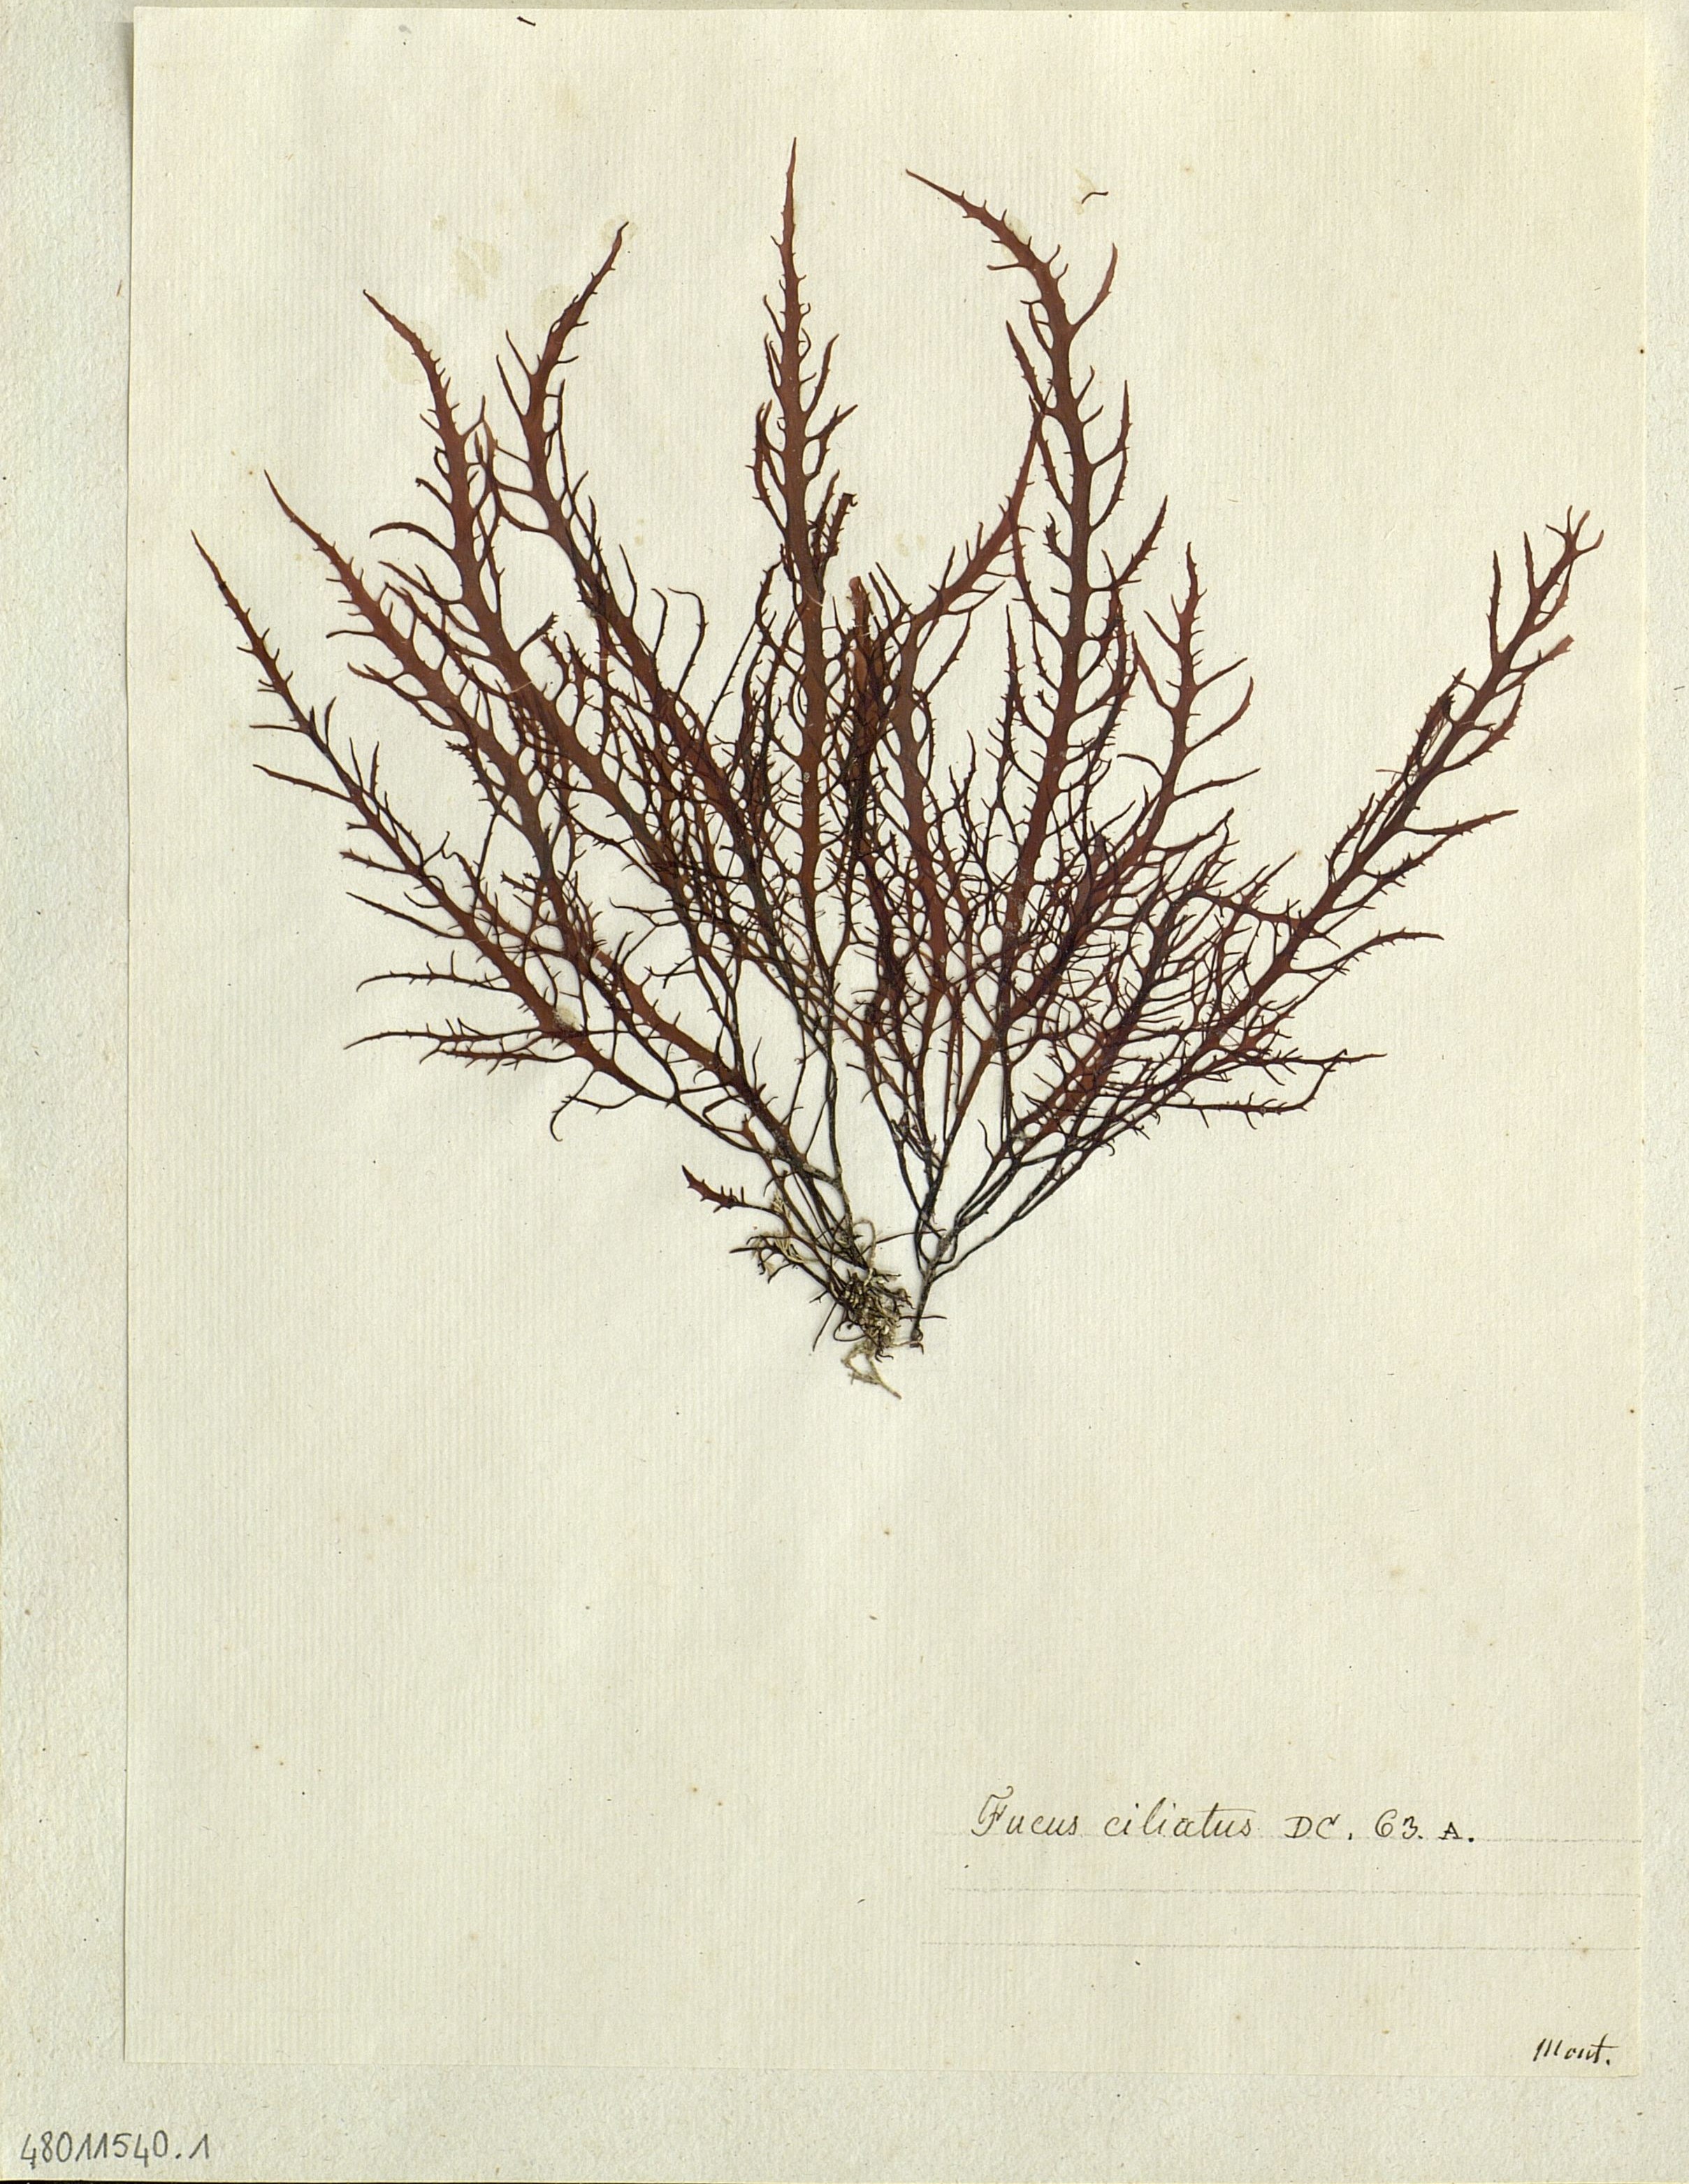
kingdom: Chromista
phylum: Ochrophyta
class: Phaeophyceae
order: Fucales
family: Fucaceae
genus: Fucus
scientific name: Fucus
